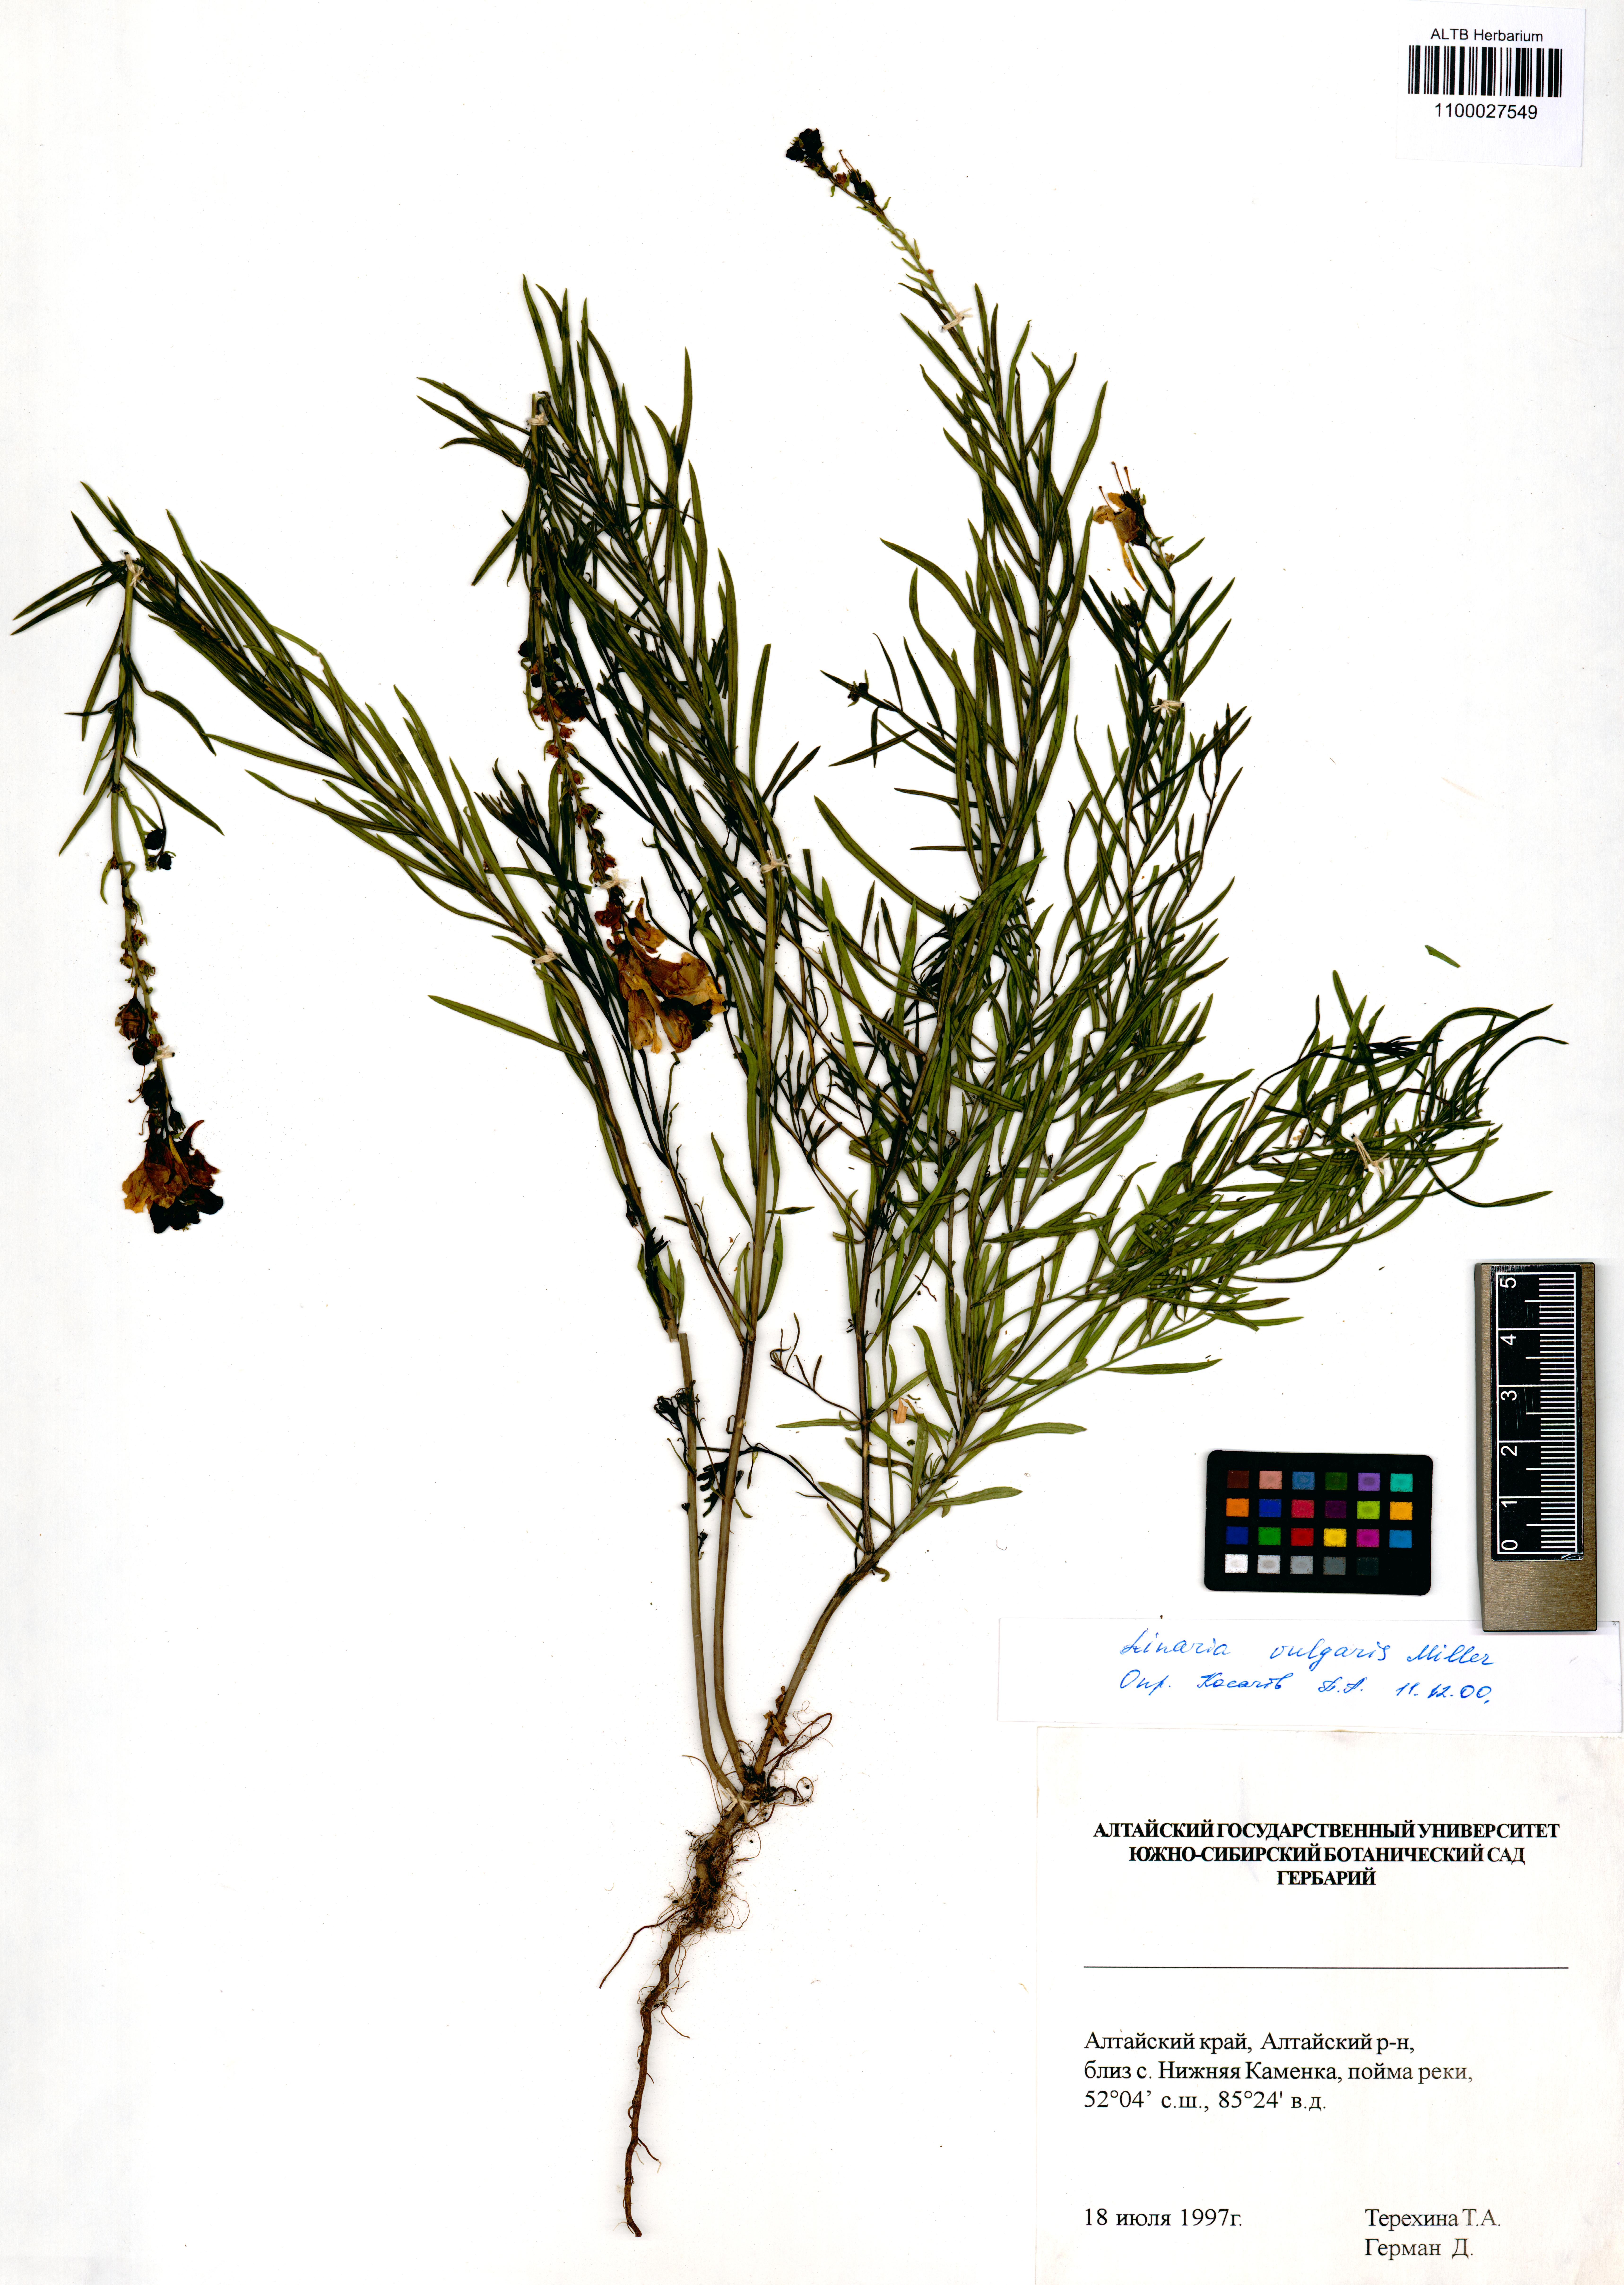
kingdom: Plantae
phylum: Tracheophyta
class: Magnoliopsida
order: Lamiales
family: Plantaginaceae
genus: Linaria
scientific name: Linaria vulgaris
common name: Butter and eggs
